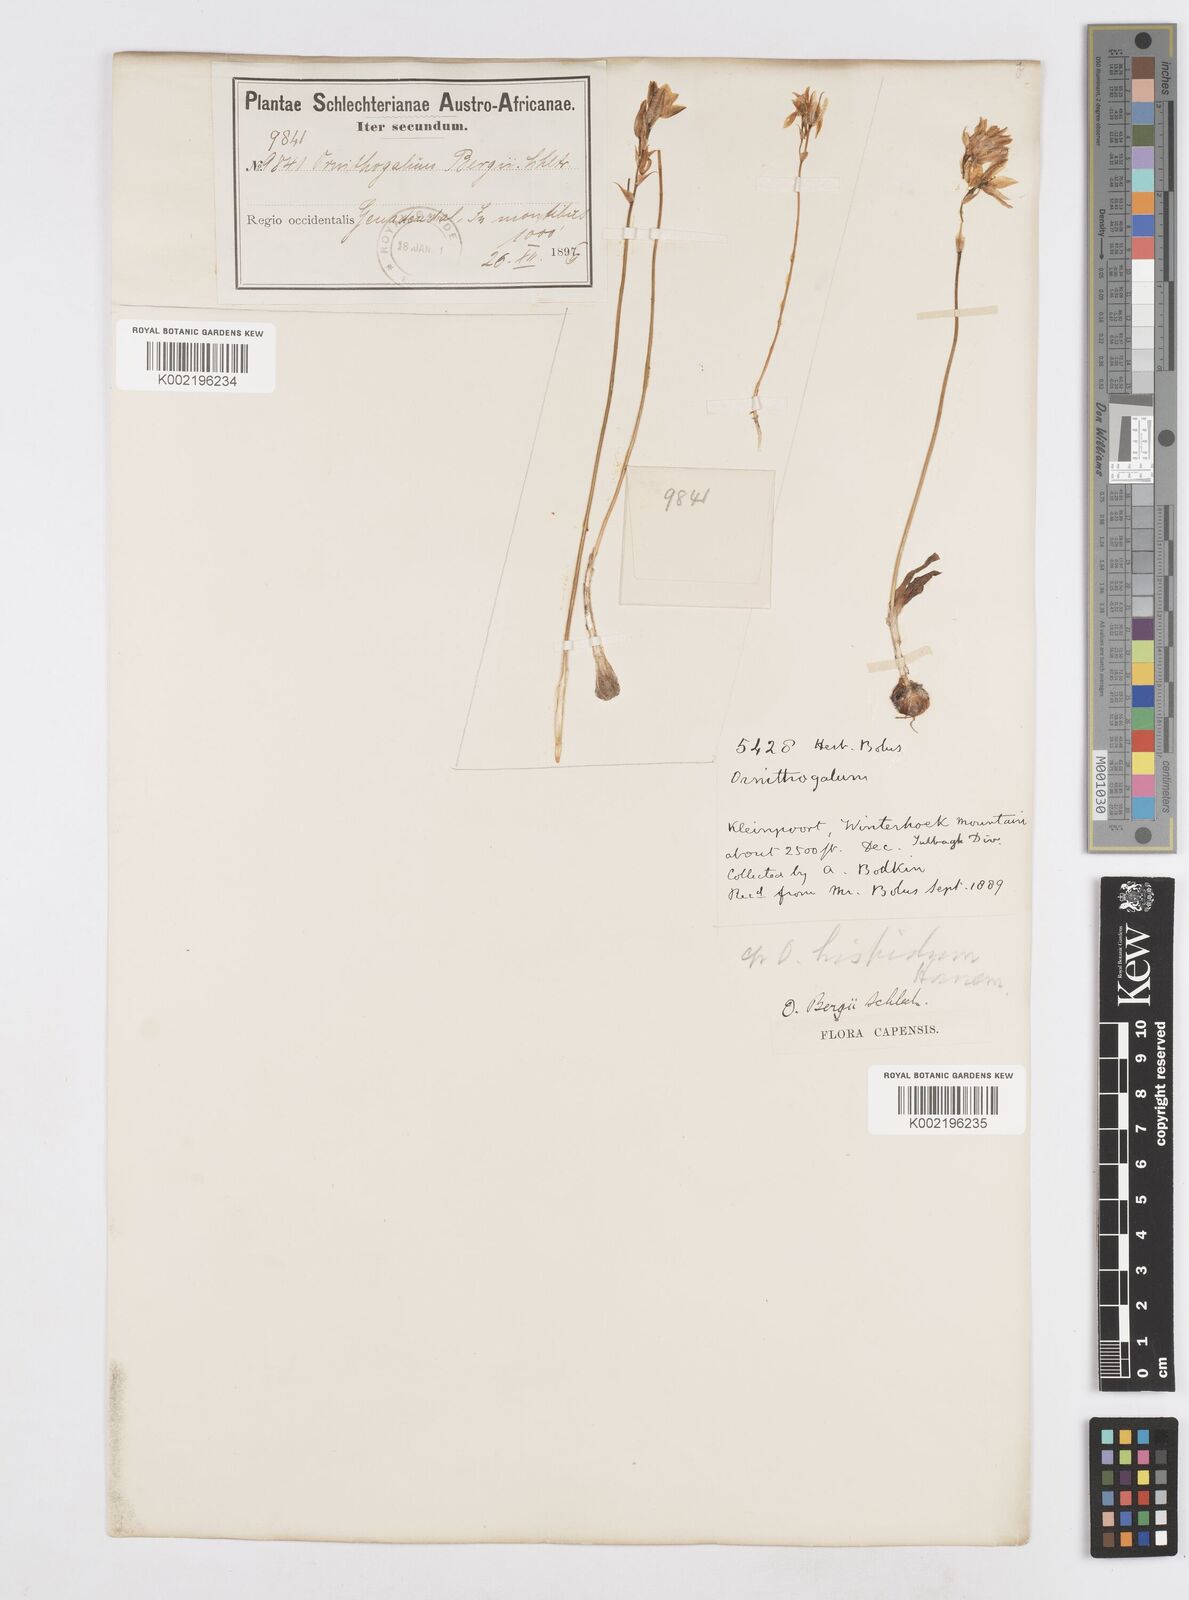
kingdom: Plantae
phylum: Tracheophyta
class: Liliopsida
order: Asparagales
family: Asparagaceae
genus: Ornithogalum
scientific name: Ornithogalum hispidum
